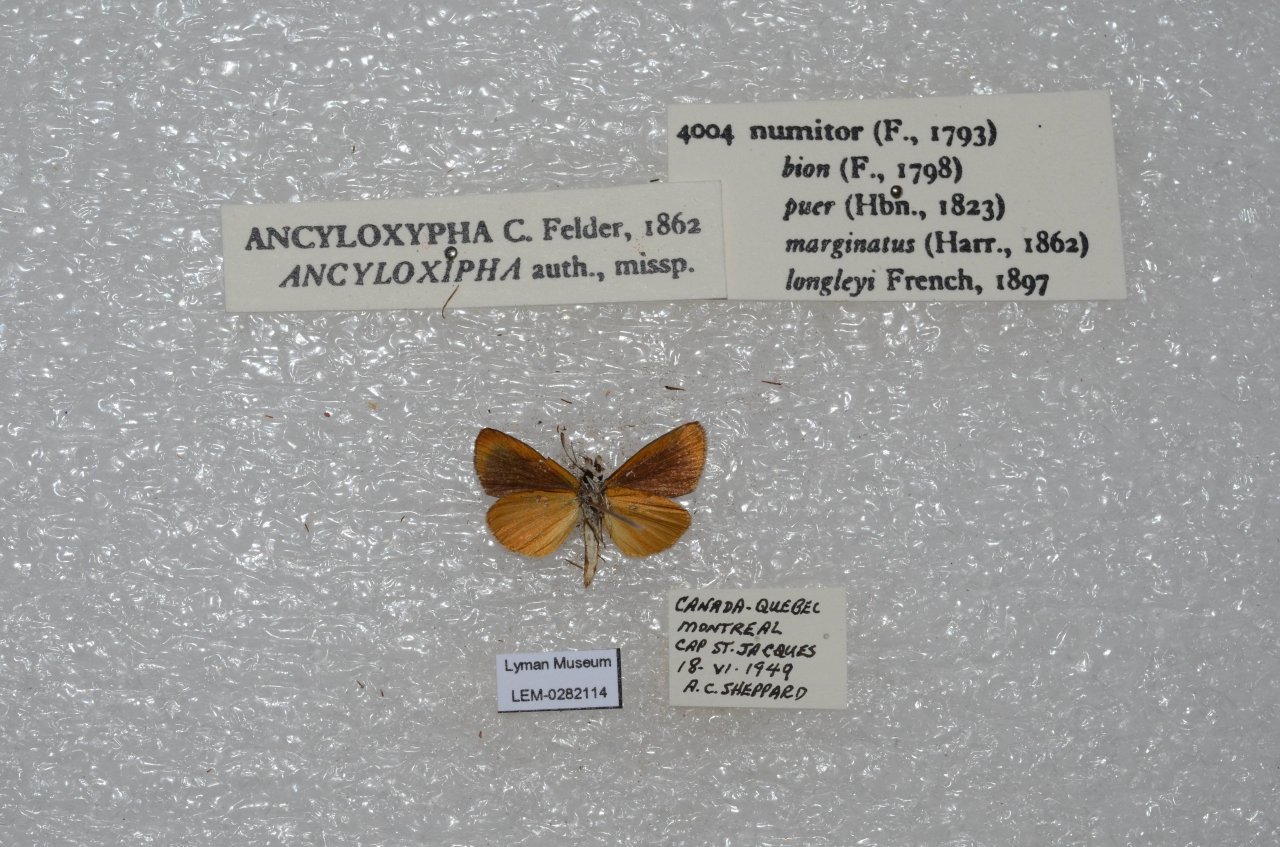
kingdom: Animalia
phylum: Arthropoda
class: Insecta
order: Lepidoptera
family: Hesperiidae
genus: Ancyloxypha
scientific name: Ancyloxypha numitor
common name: Least Skipper
